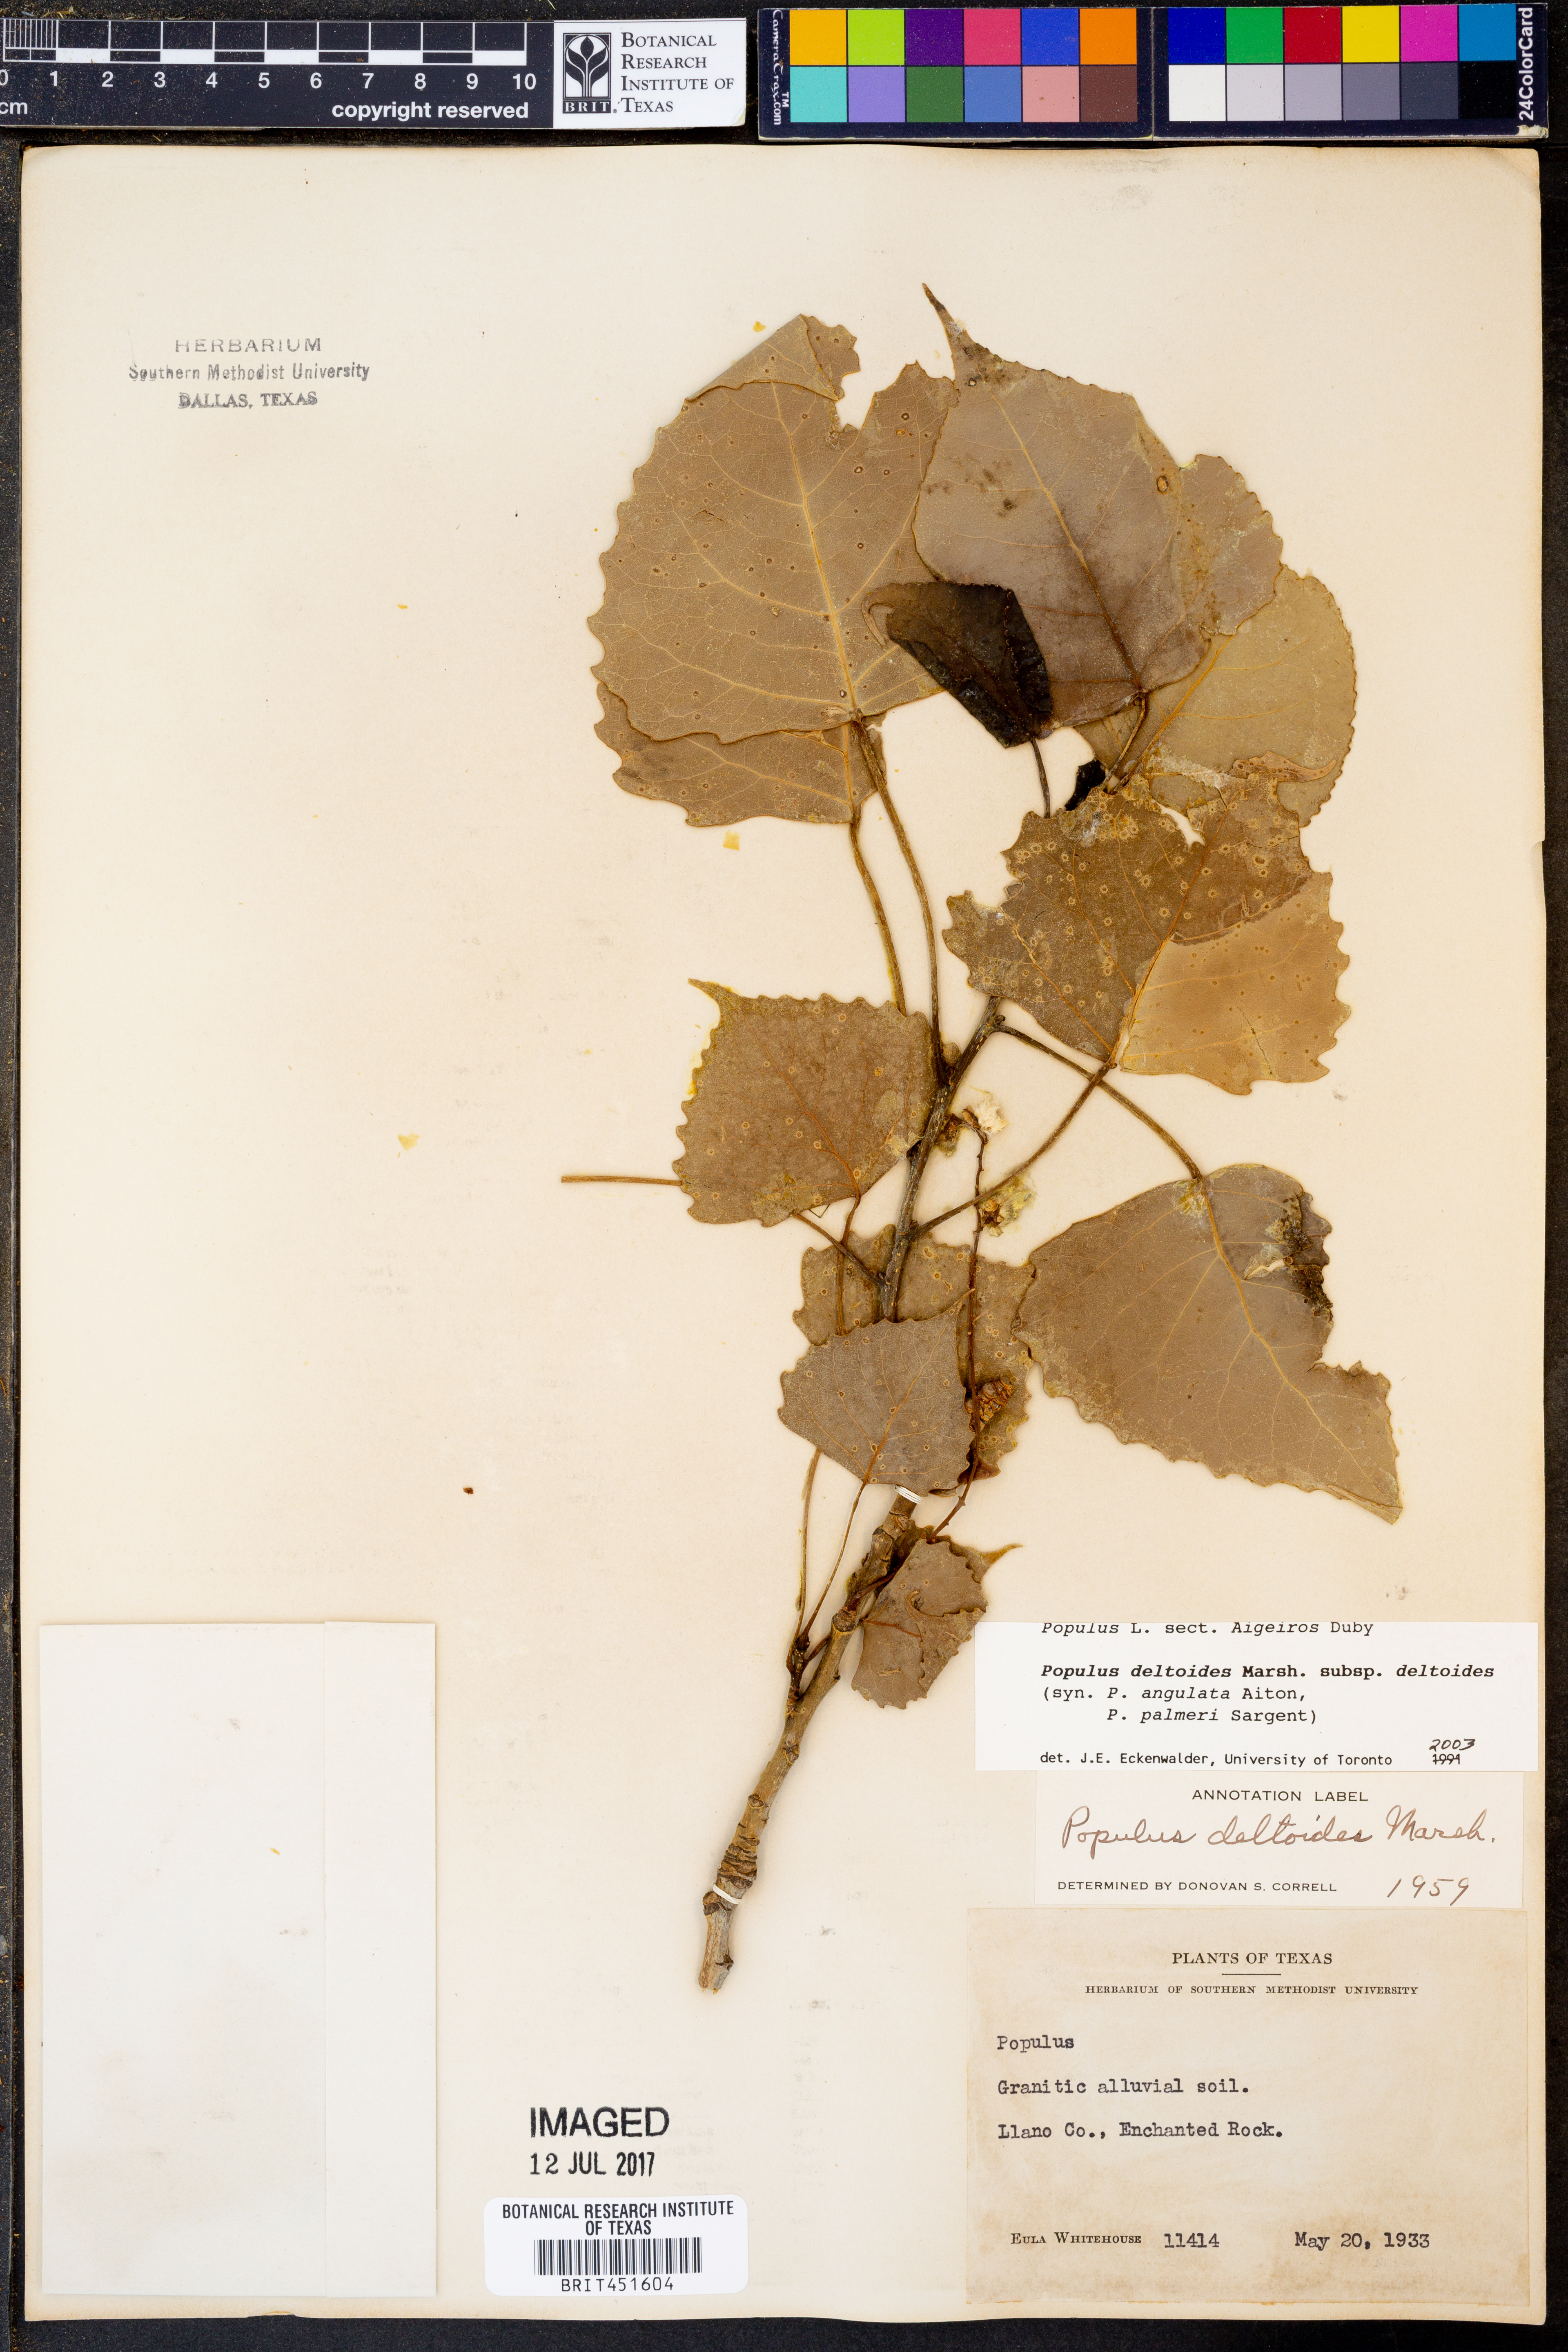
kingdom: Plantae
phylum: Tracheophyta
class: Magnoliopsida
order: Malpighiales
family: Salicaceae
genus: Populus
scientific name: Populus deltoides
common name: Eastern cottonwood
